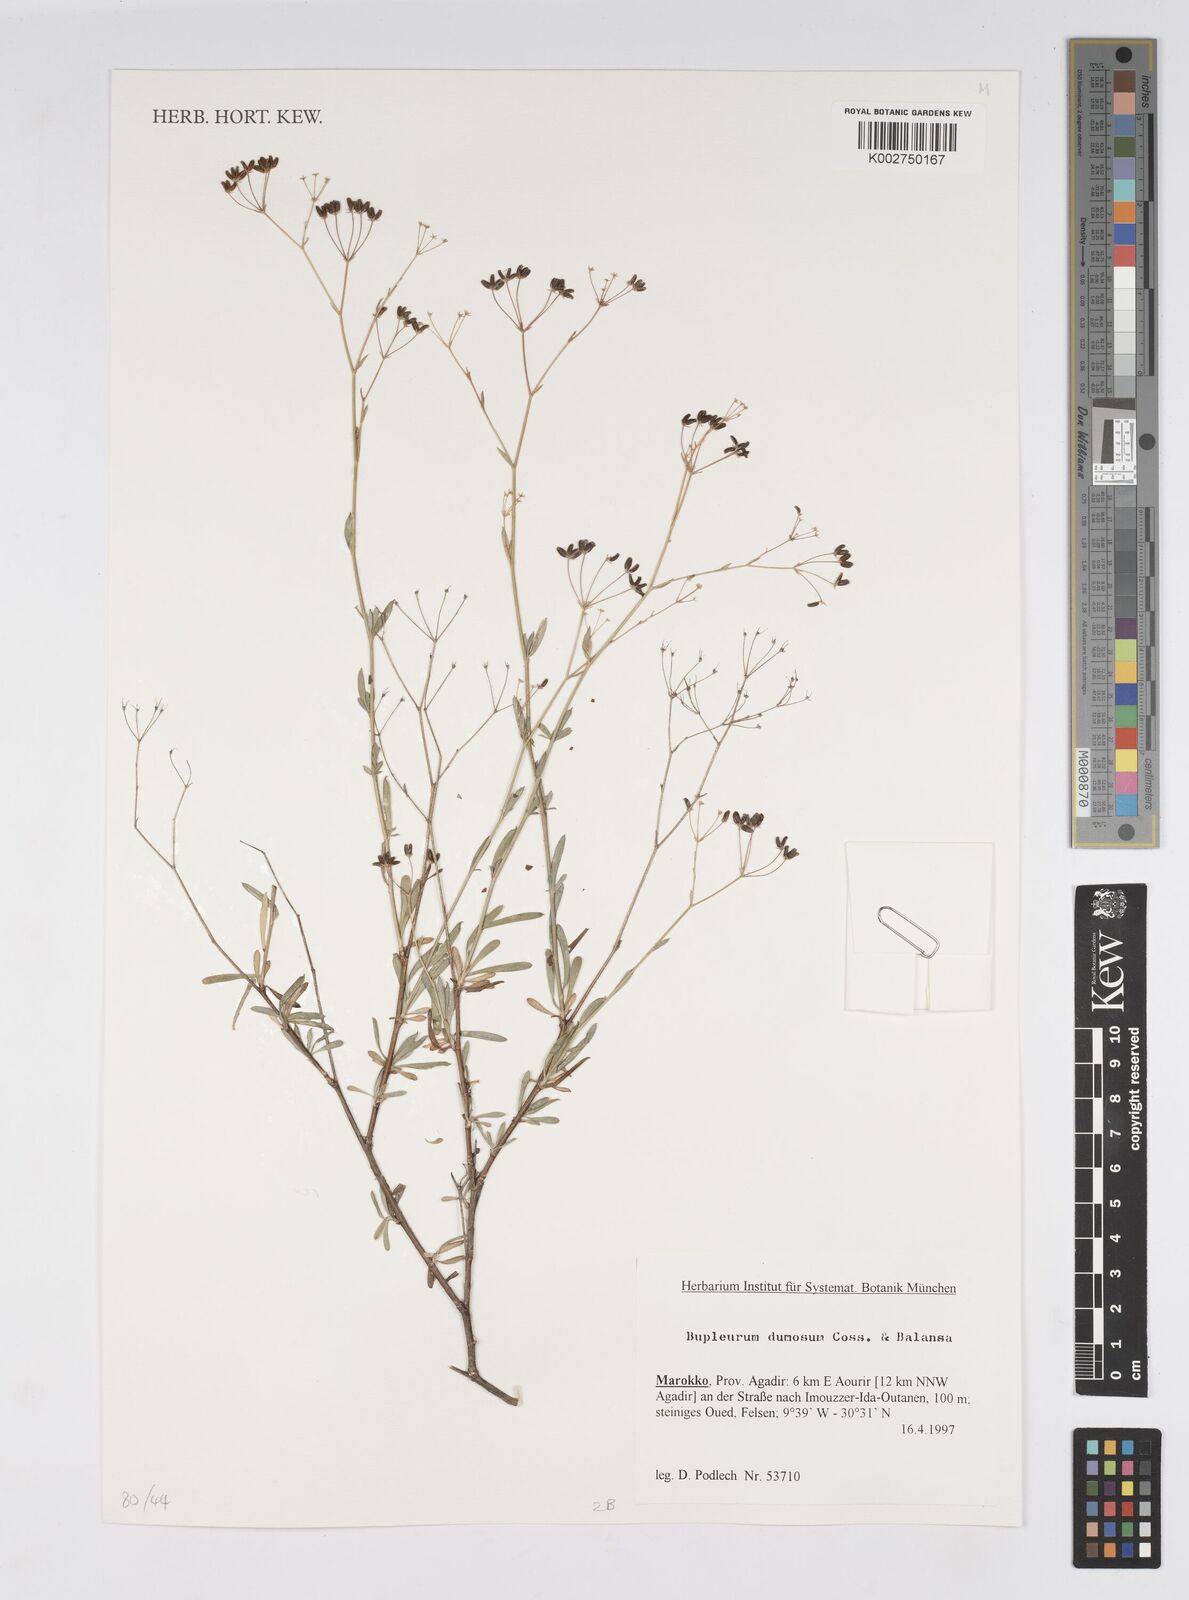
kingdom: Plantae
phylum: Tracheophyta
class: Magnoliopsida
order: Apiales
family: Apiaceae
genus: Bupleurum
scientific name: Bupleurum dumosum
